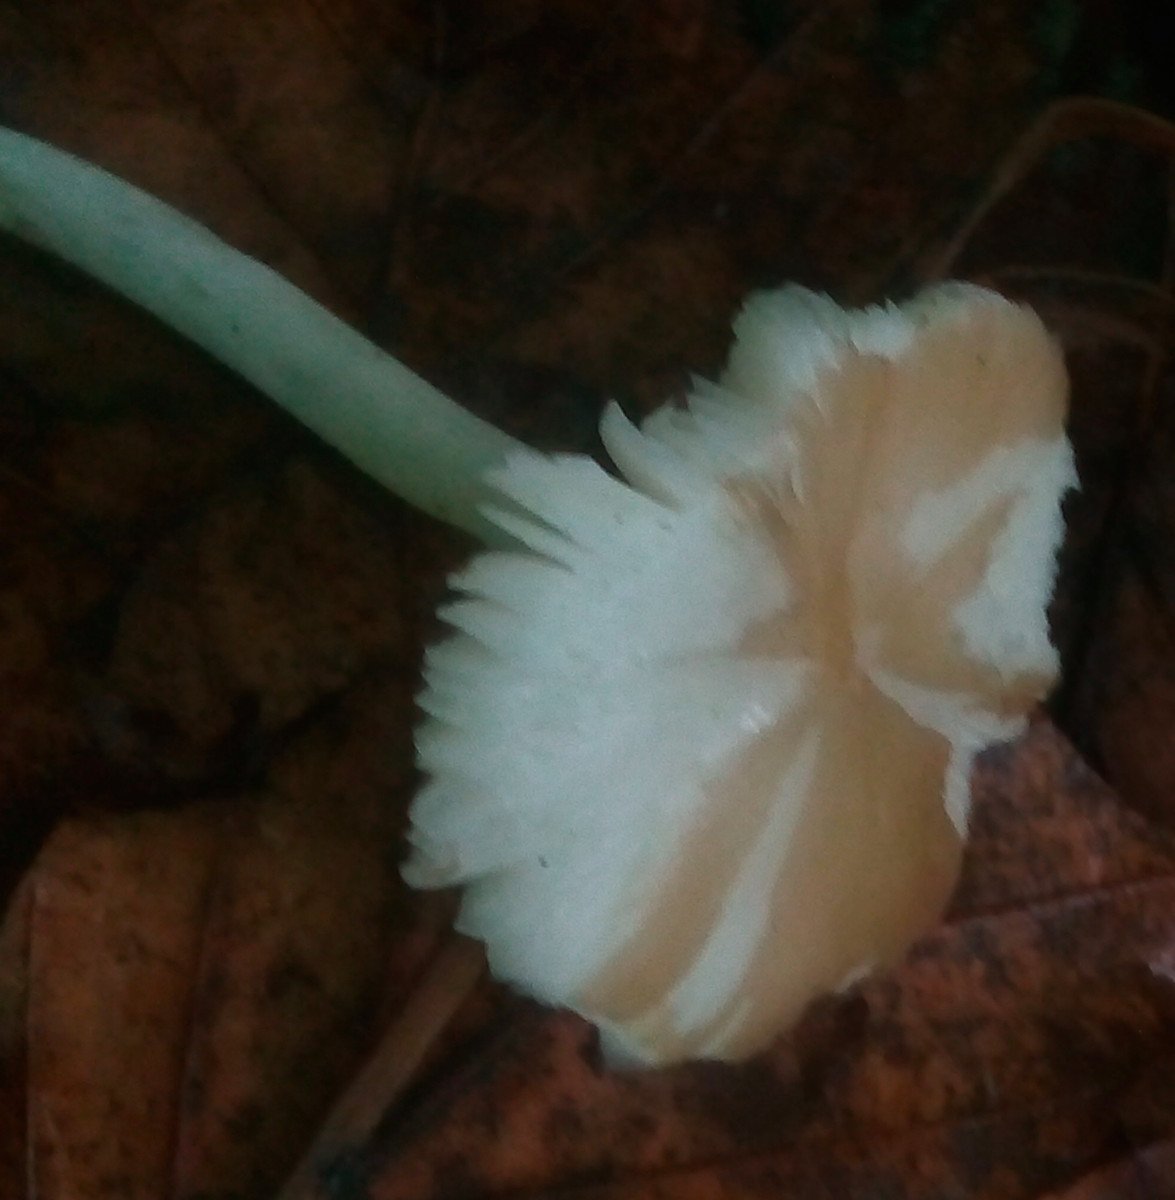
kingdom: Fungi
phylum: Basidiomycota
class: Agaricomycetes
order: Agaricales
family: Porotheleaceae
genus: Hydropodia
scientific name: Hydropodia subalpina
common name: vår-fnugfod
